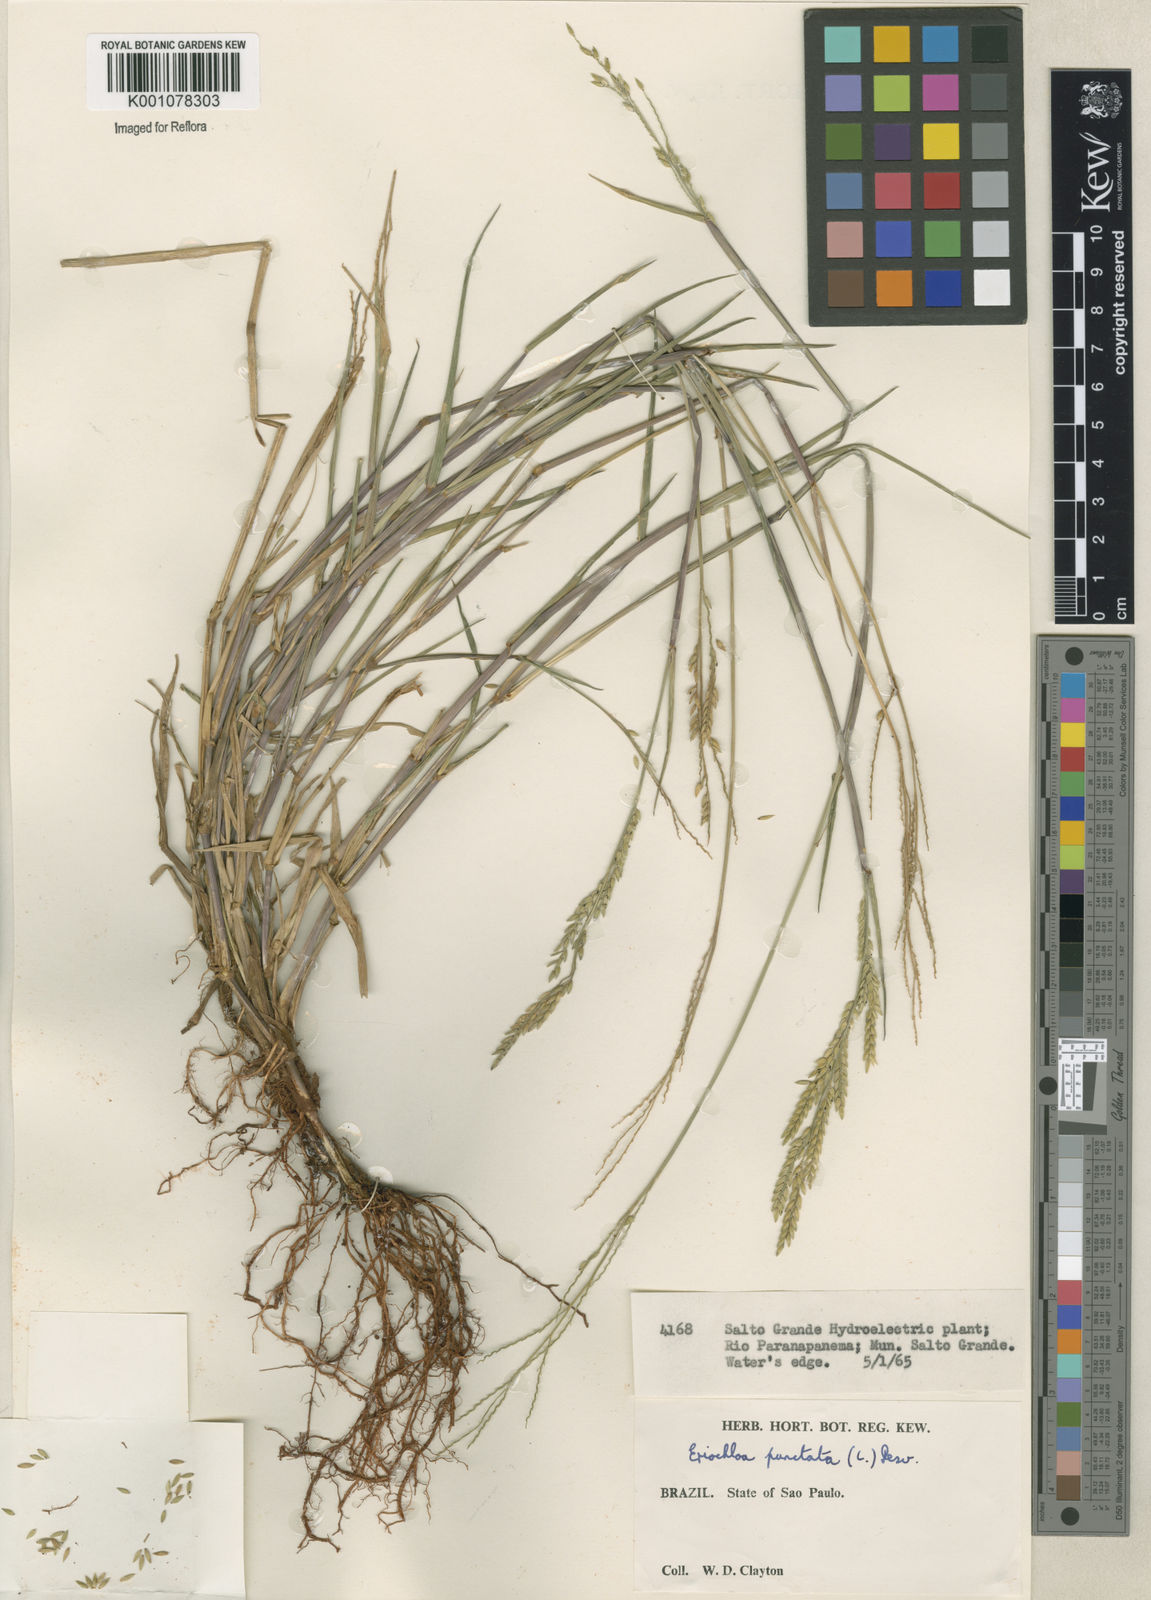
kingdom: Plantae
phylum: Tracheophyta
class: Liliopsida
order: Poales
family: Poaceae
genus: Eriochloa
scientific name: Eriochloa punctata
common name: Louisiana cupgrass
